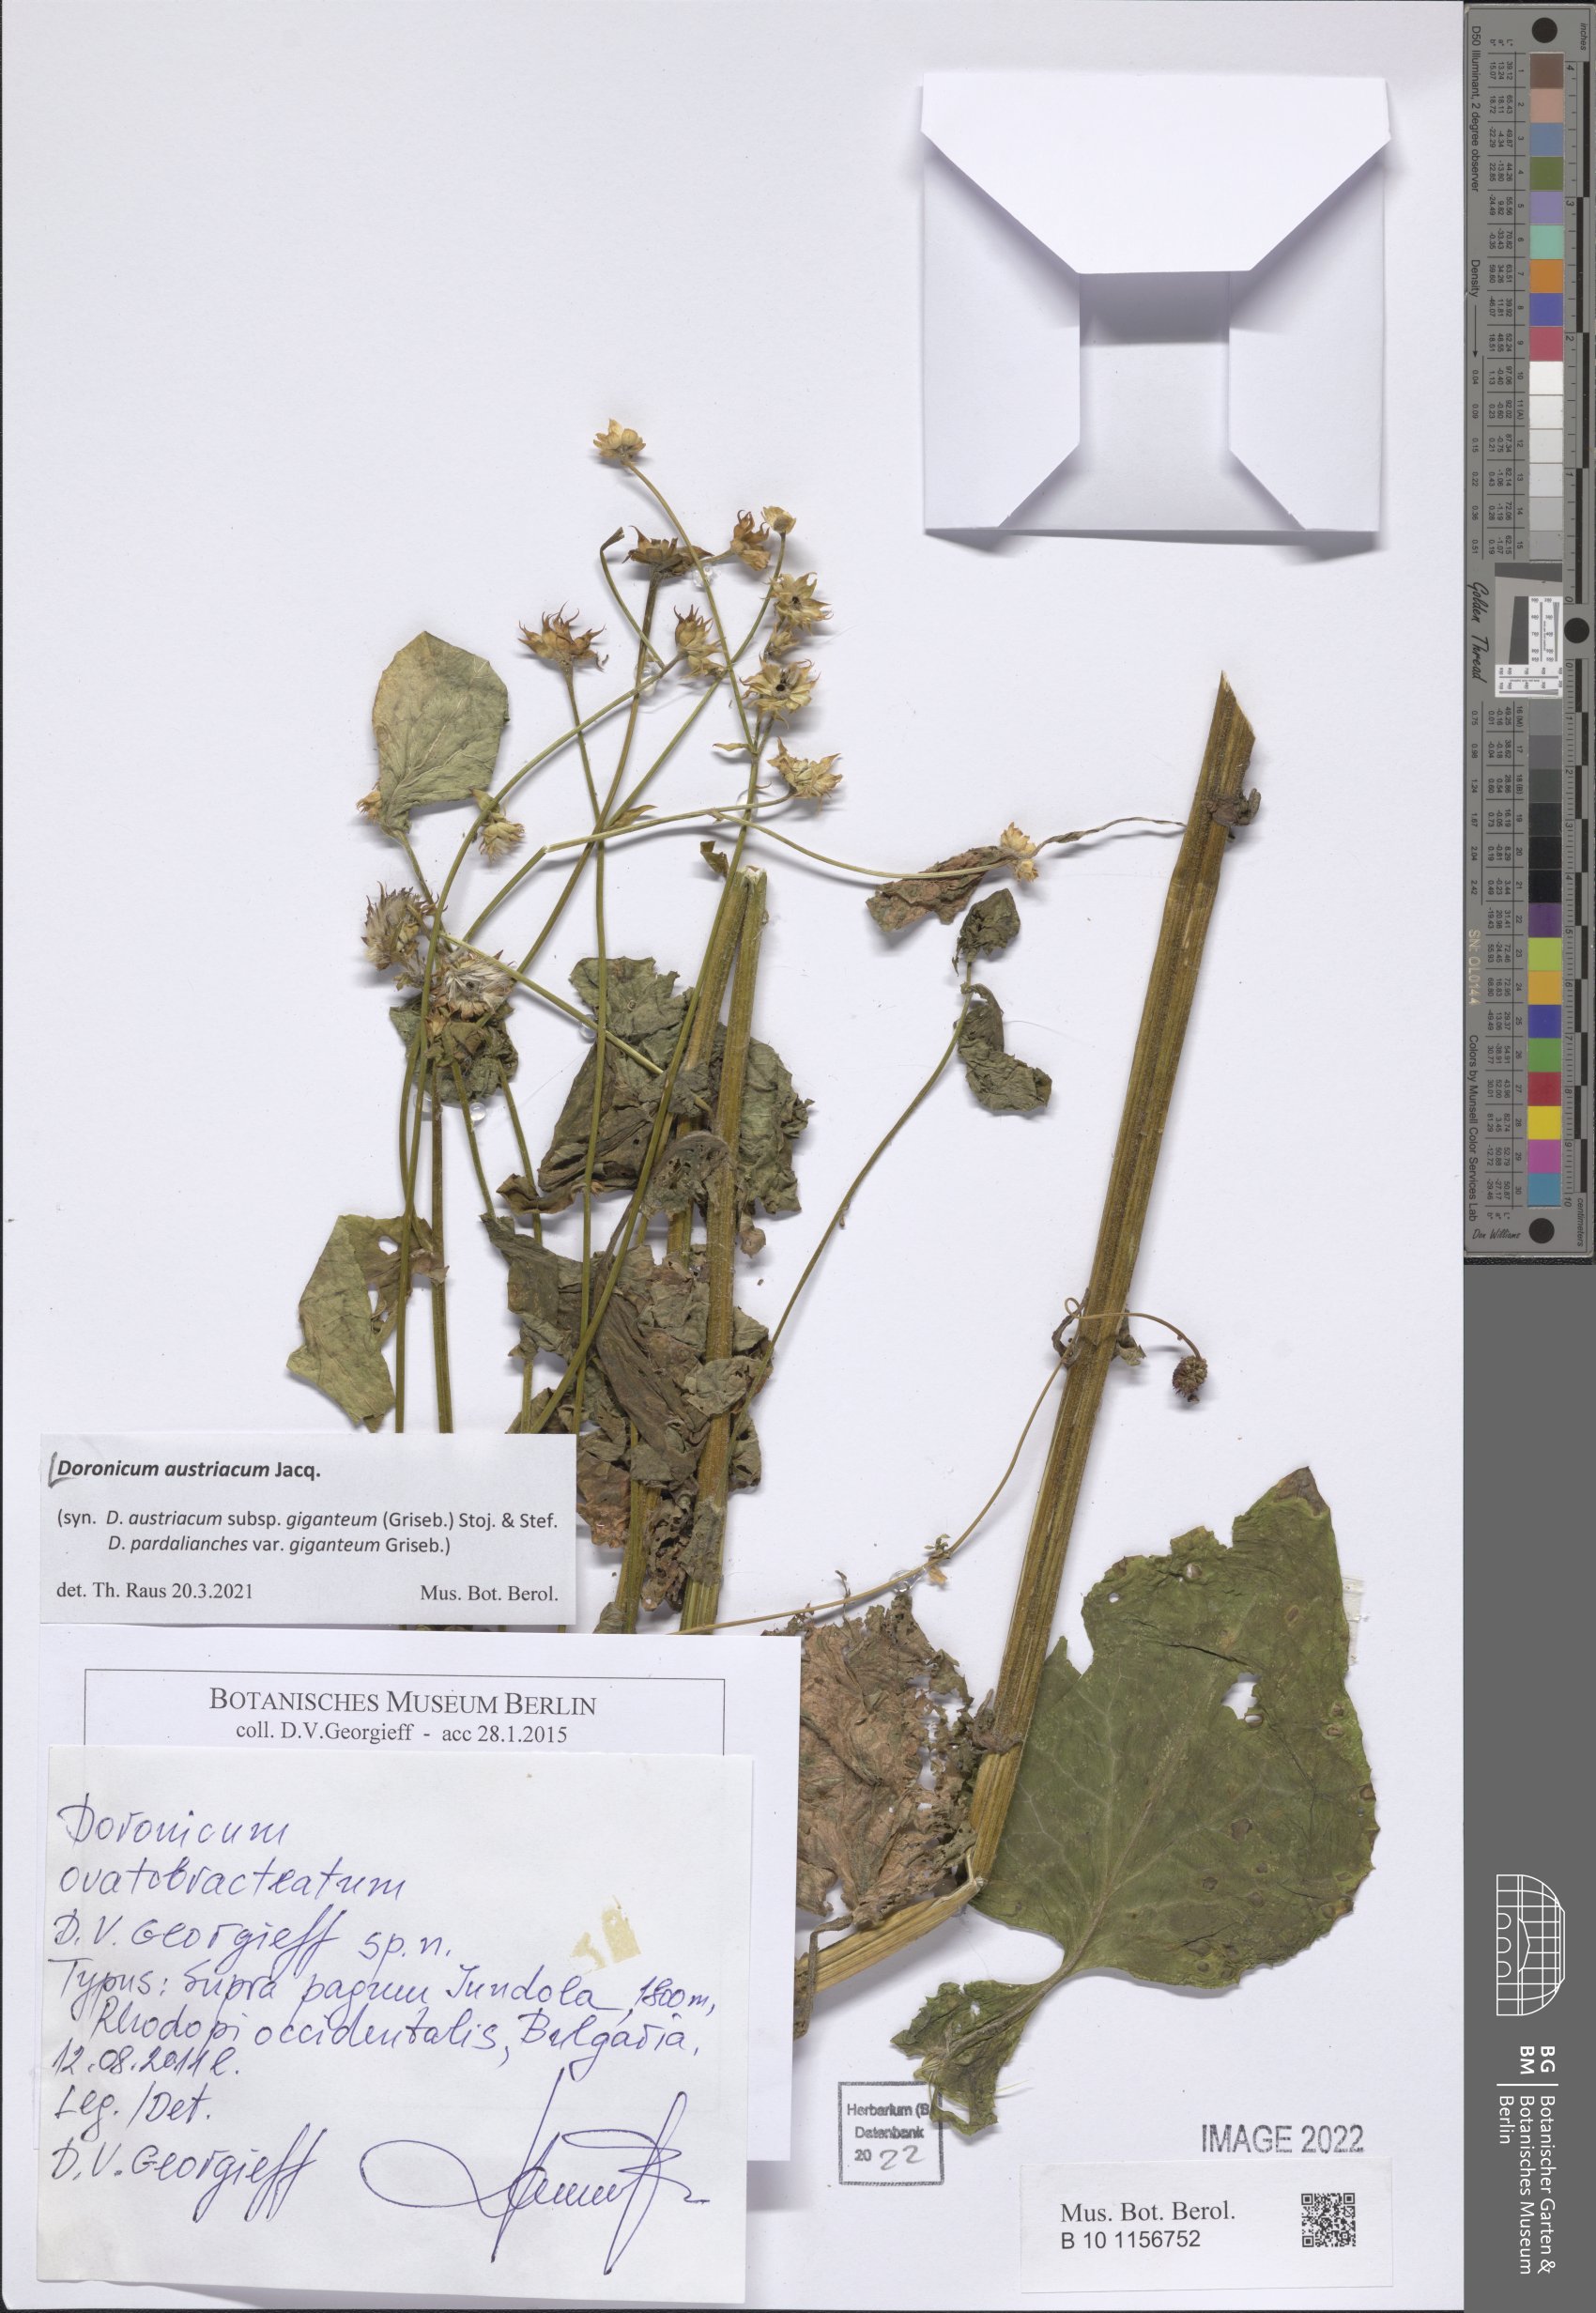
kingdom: Plantae
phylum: Tracheophyta
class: Magnoliopsida
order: Asterales
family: Asteraceae
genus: Doronicum
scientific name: Doronicum austriacum
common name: Austrian leopard's-bane
